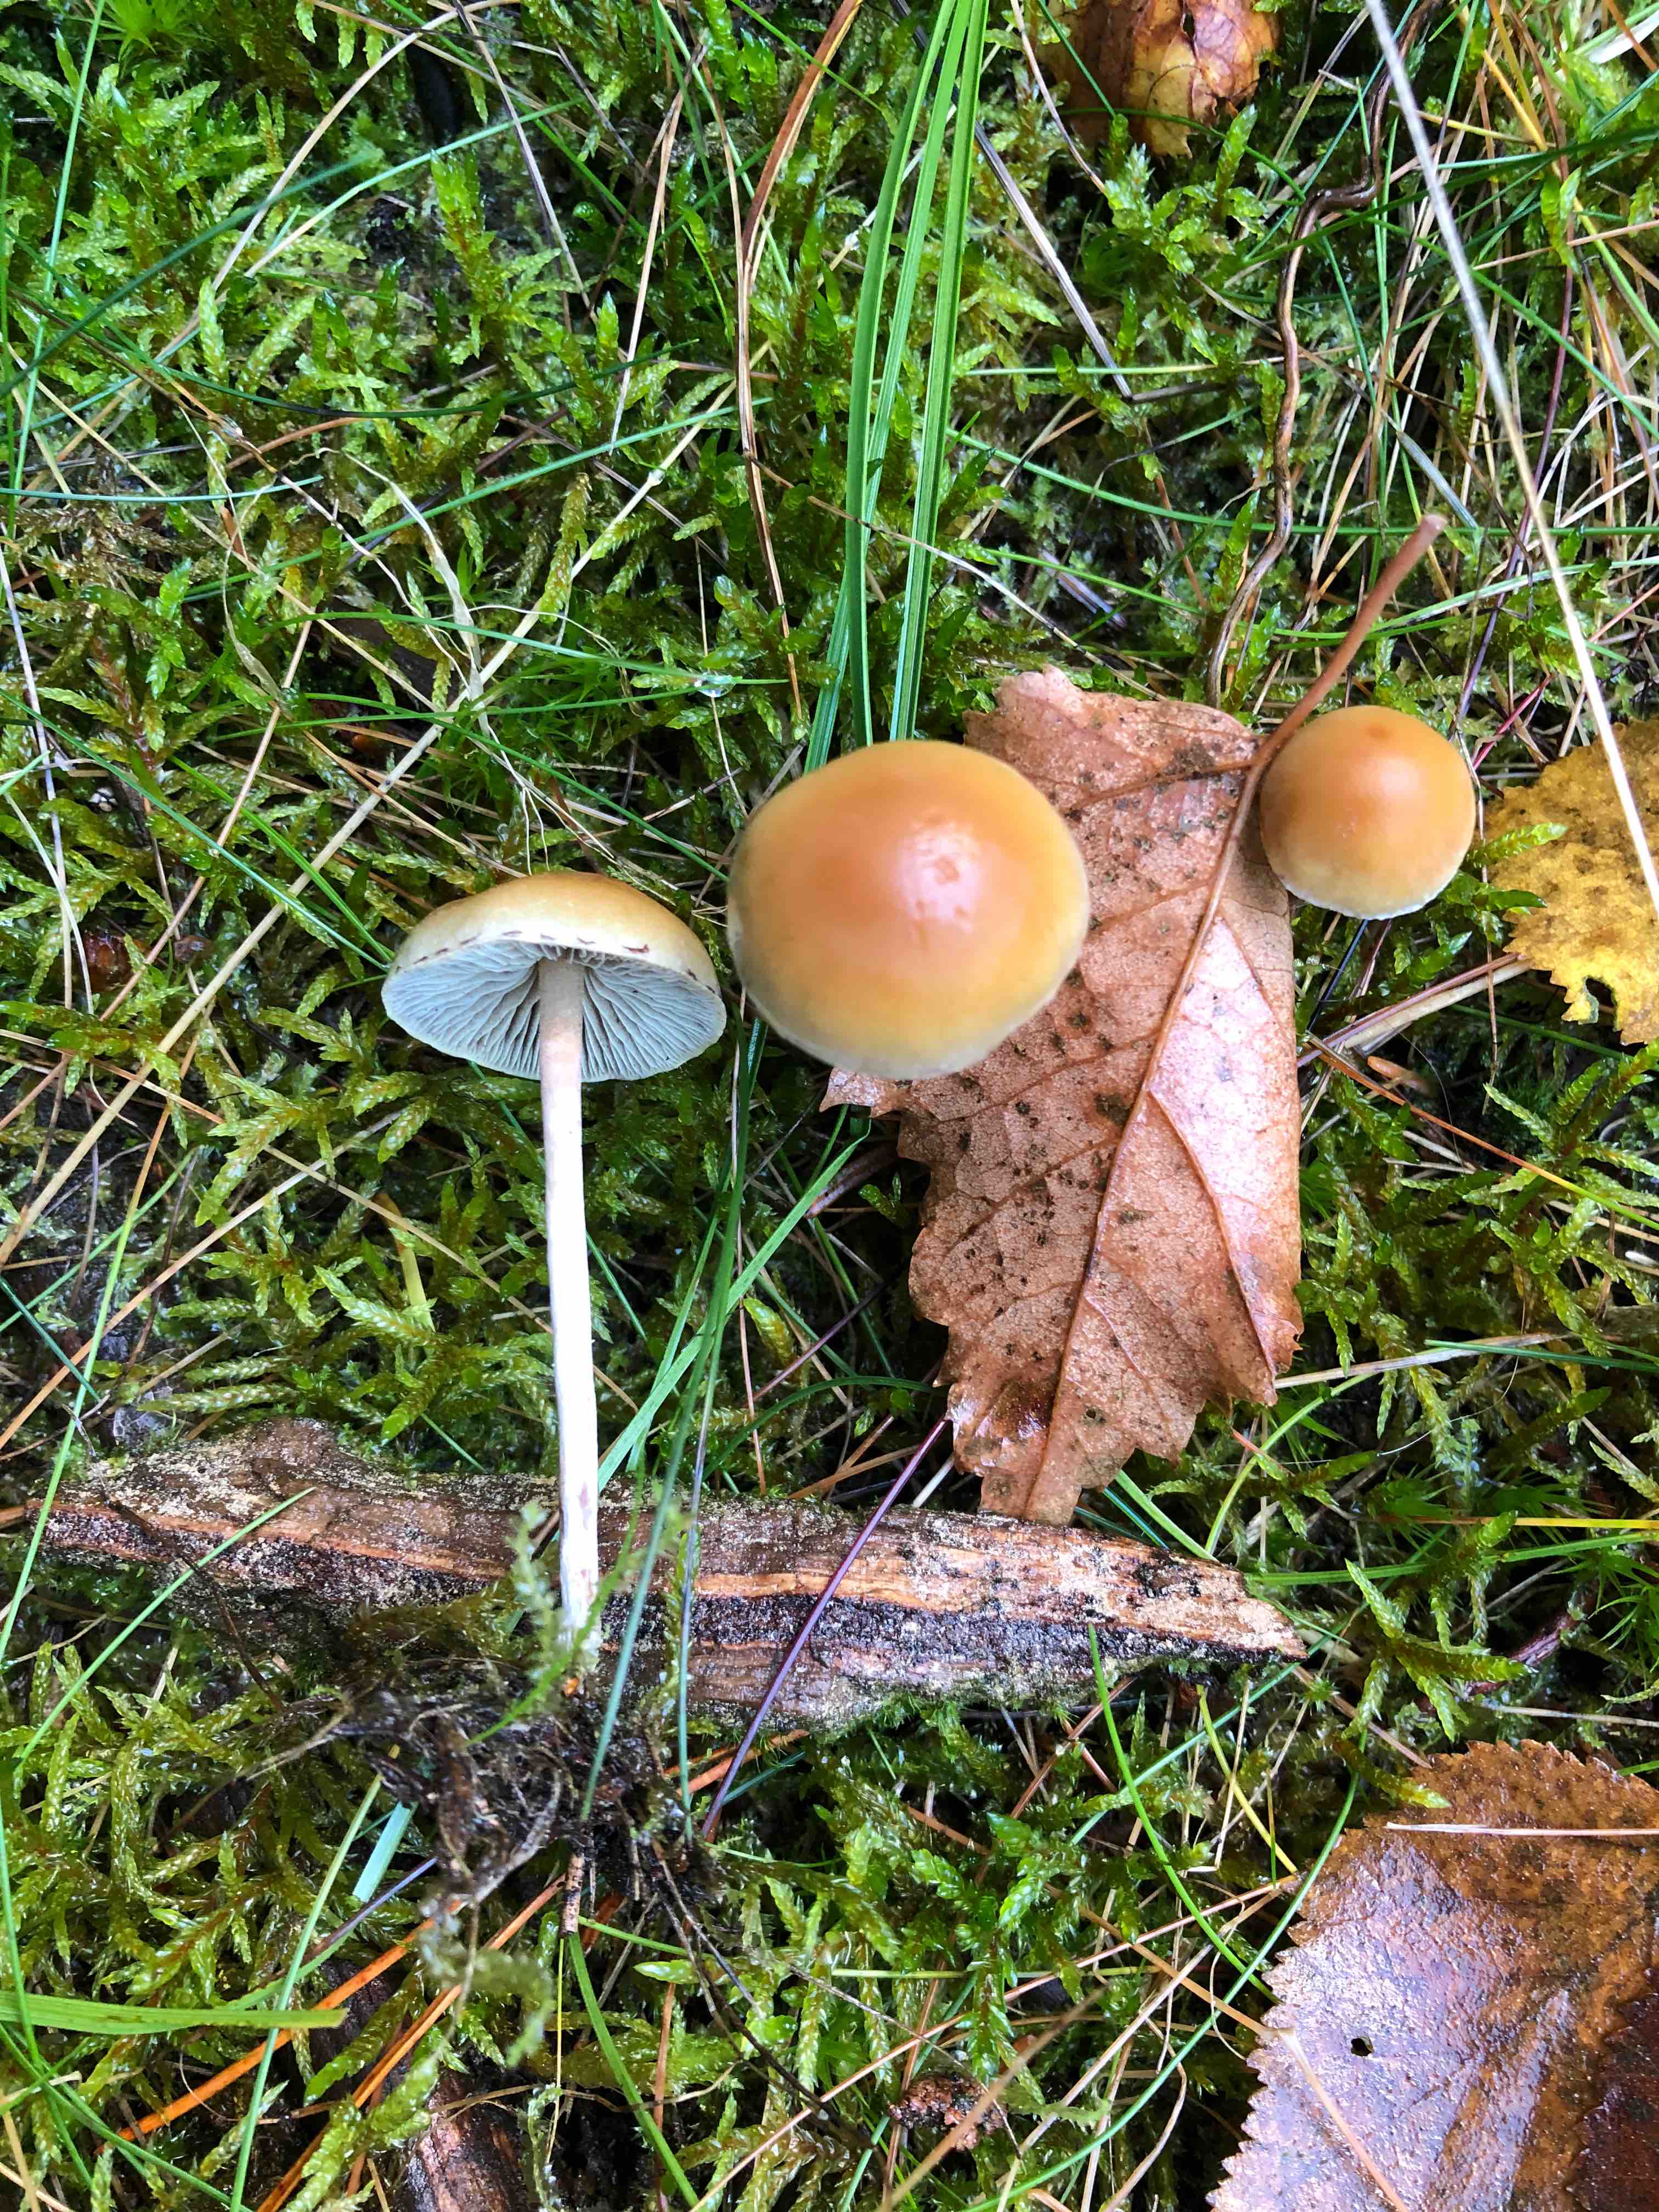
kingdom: Fungi
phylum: Basidiomycota
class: Agaricomycetes
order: Agaricales
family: Strophariaceae
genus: Hypholoma
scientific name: Hypholoma marginatum
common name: enlig svovlhat
